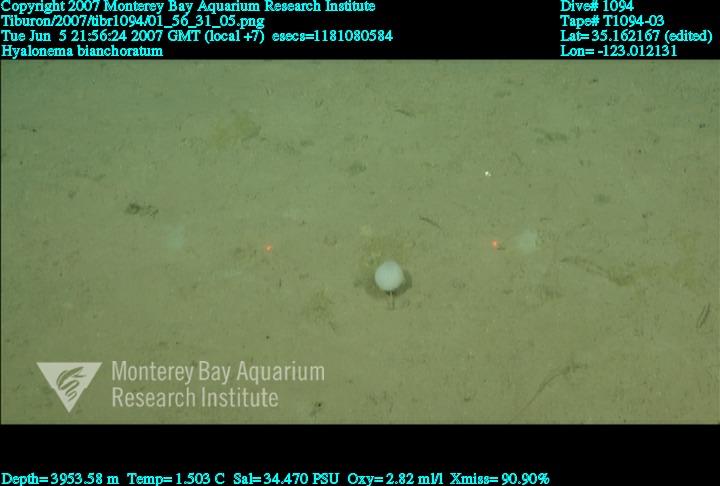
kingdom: Animalia
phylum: Porifera
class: Hexactinellida
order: Amphidiscosida
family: Hyalonematidae
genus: Hyalonema
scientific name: Hyalonema bianchoratum
